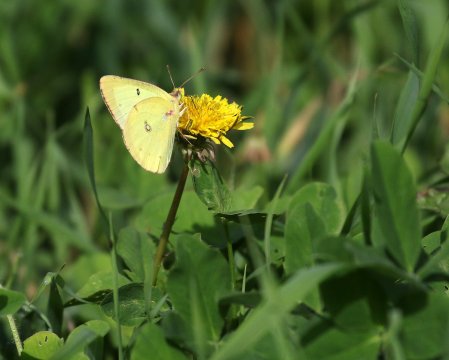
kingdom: Animalia
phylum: Arthropoda
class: Insecta
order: Lepidoptera
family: Pieridae
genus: Colias
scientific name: Colias philodice
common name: Clouded Sulphur
